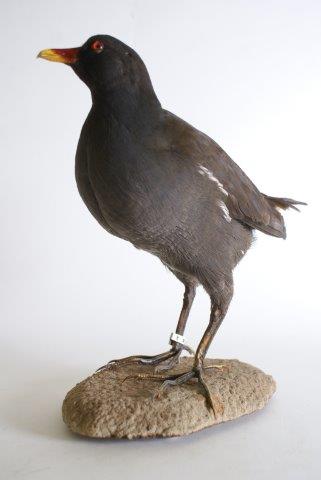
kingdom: Animalia
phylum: Chordata
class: Aves
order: Gruiformes
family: Rallidae
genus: Gallinula
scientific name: Gallinula chloropus
